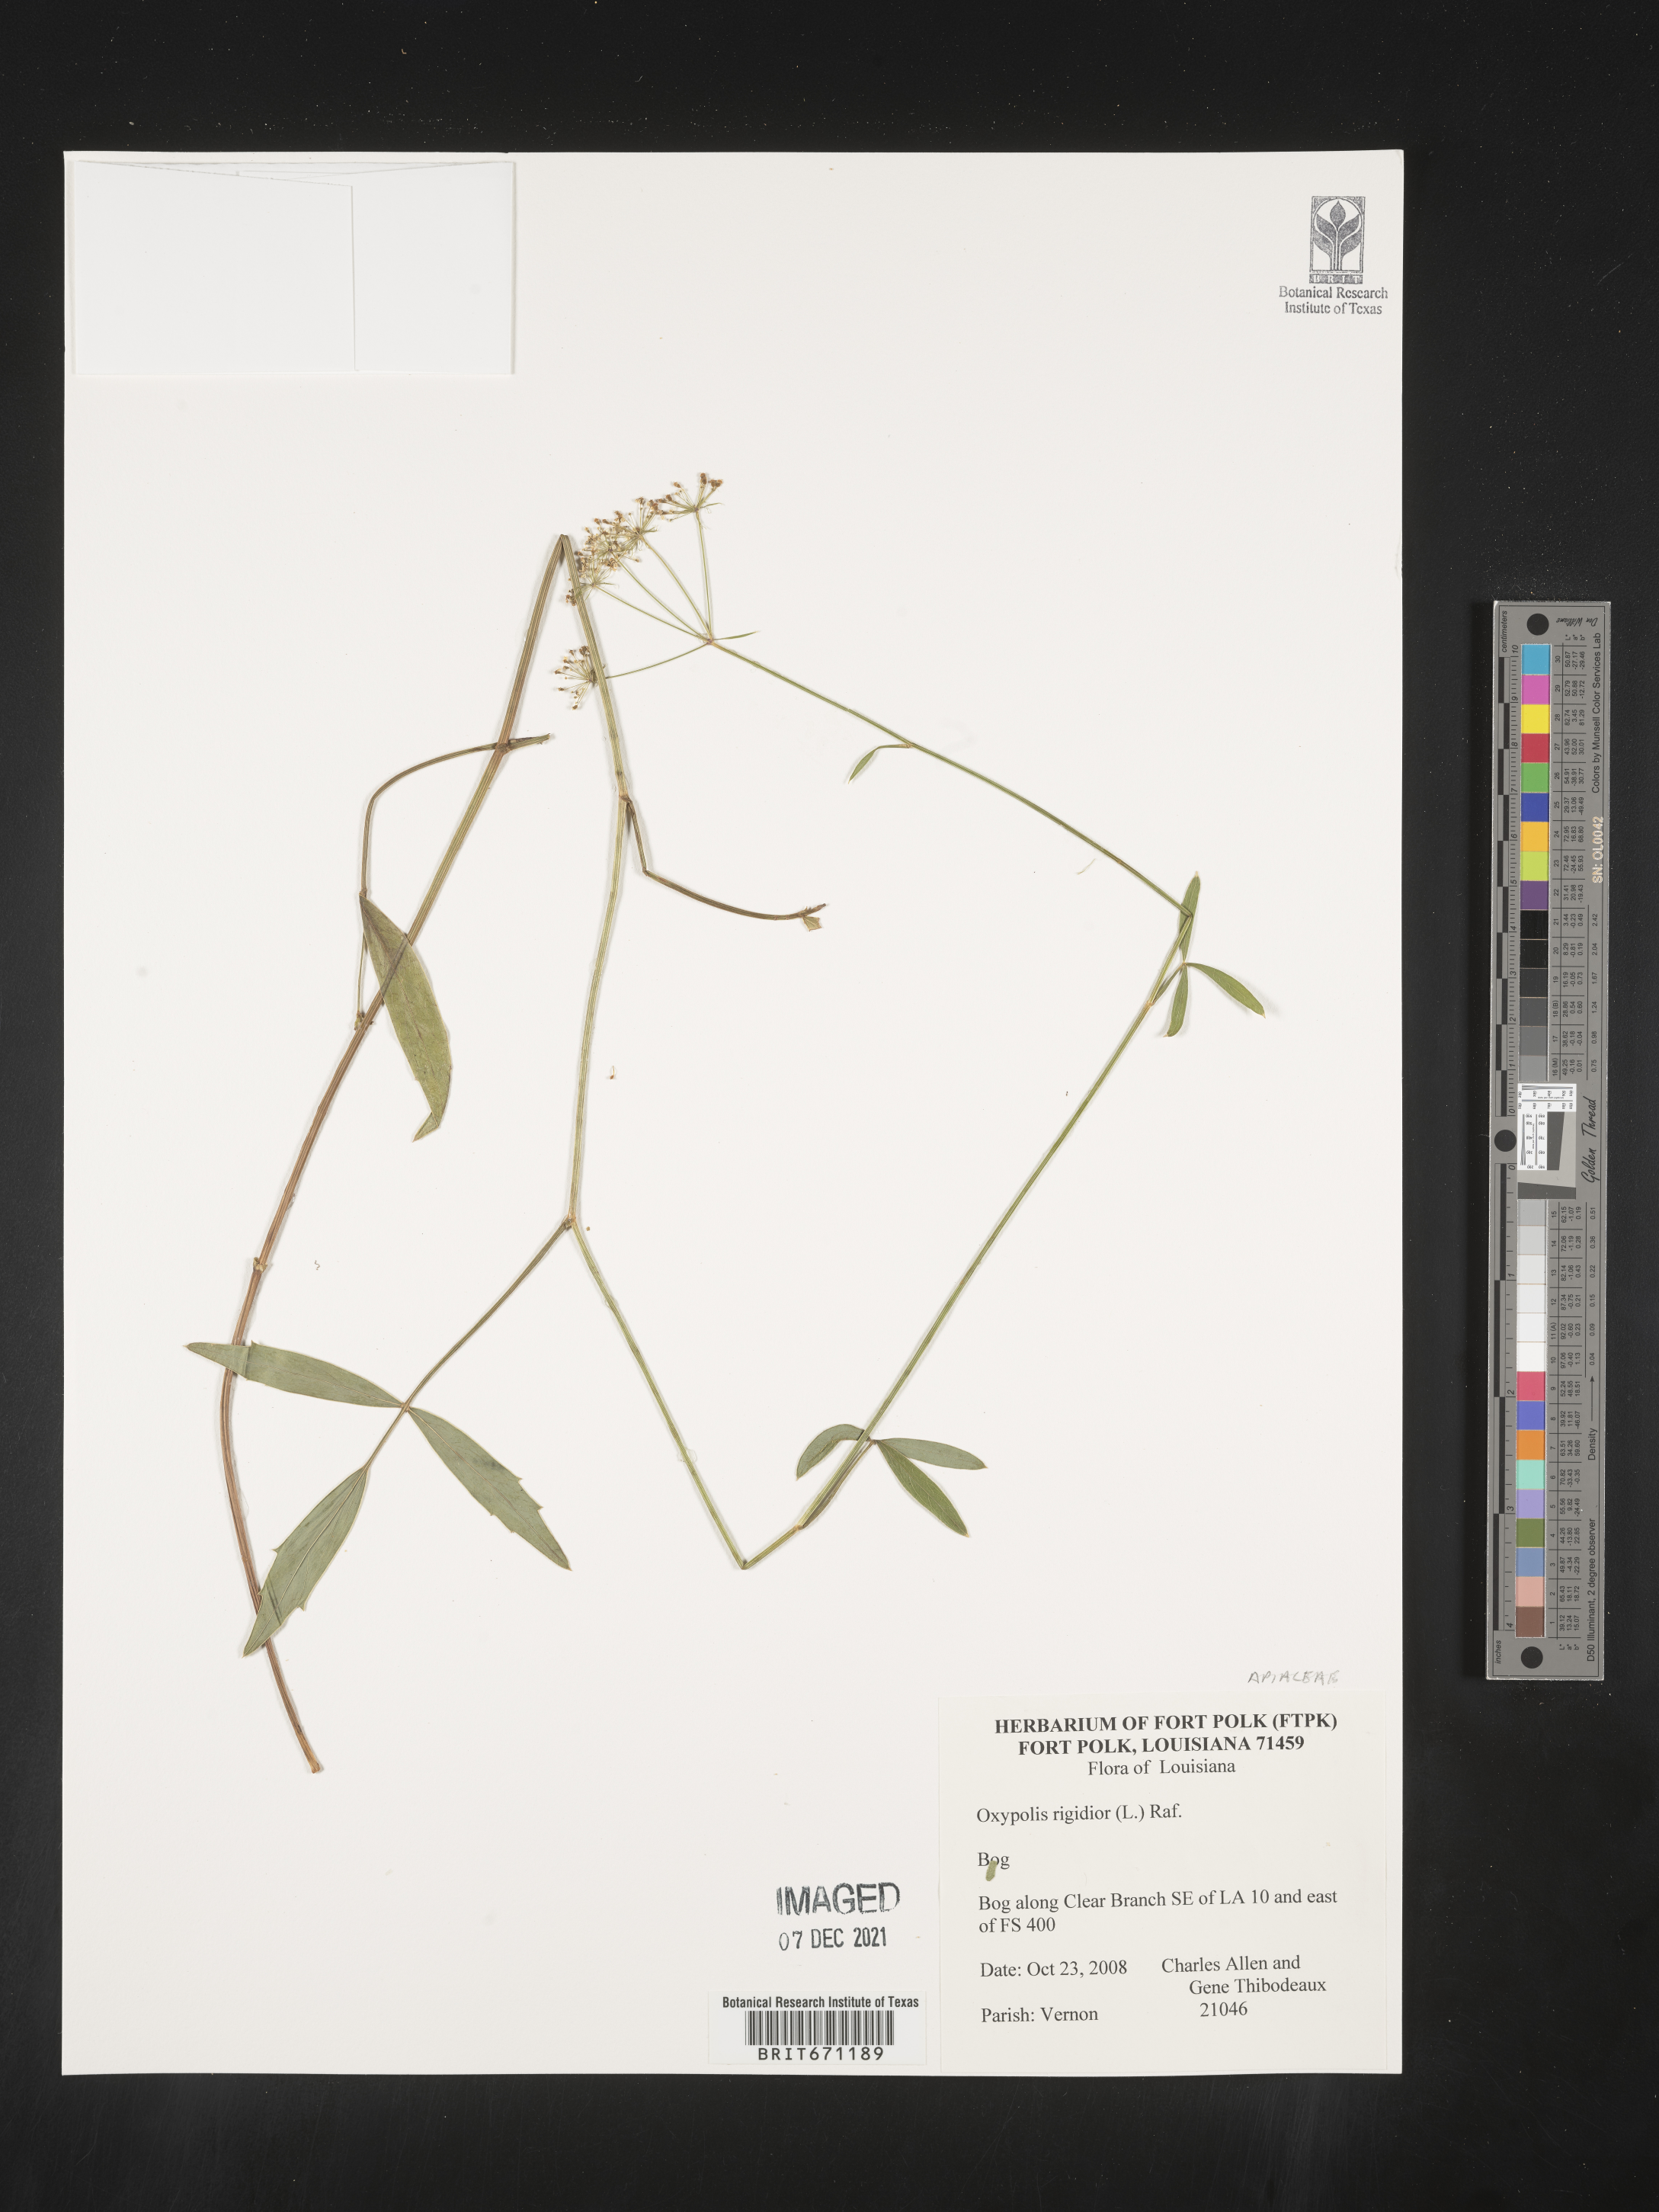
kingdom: Plantae
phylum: Tracheophyta
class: Magnoliopsida
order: Apiales
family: Apiaceae
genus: Oxypolis
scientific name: Oxypolis rigidior
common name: Cowbane
